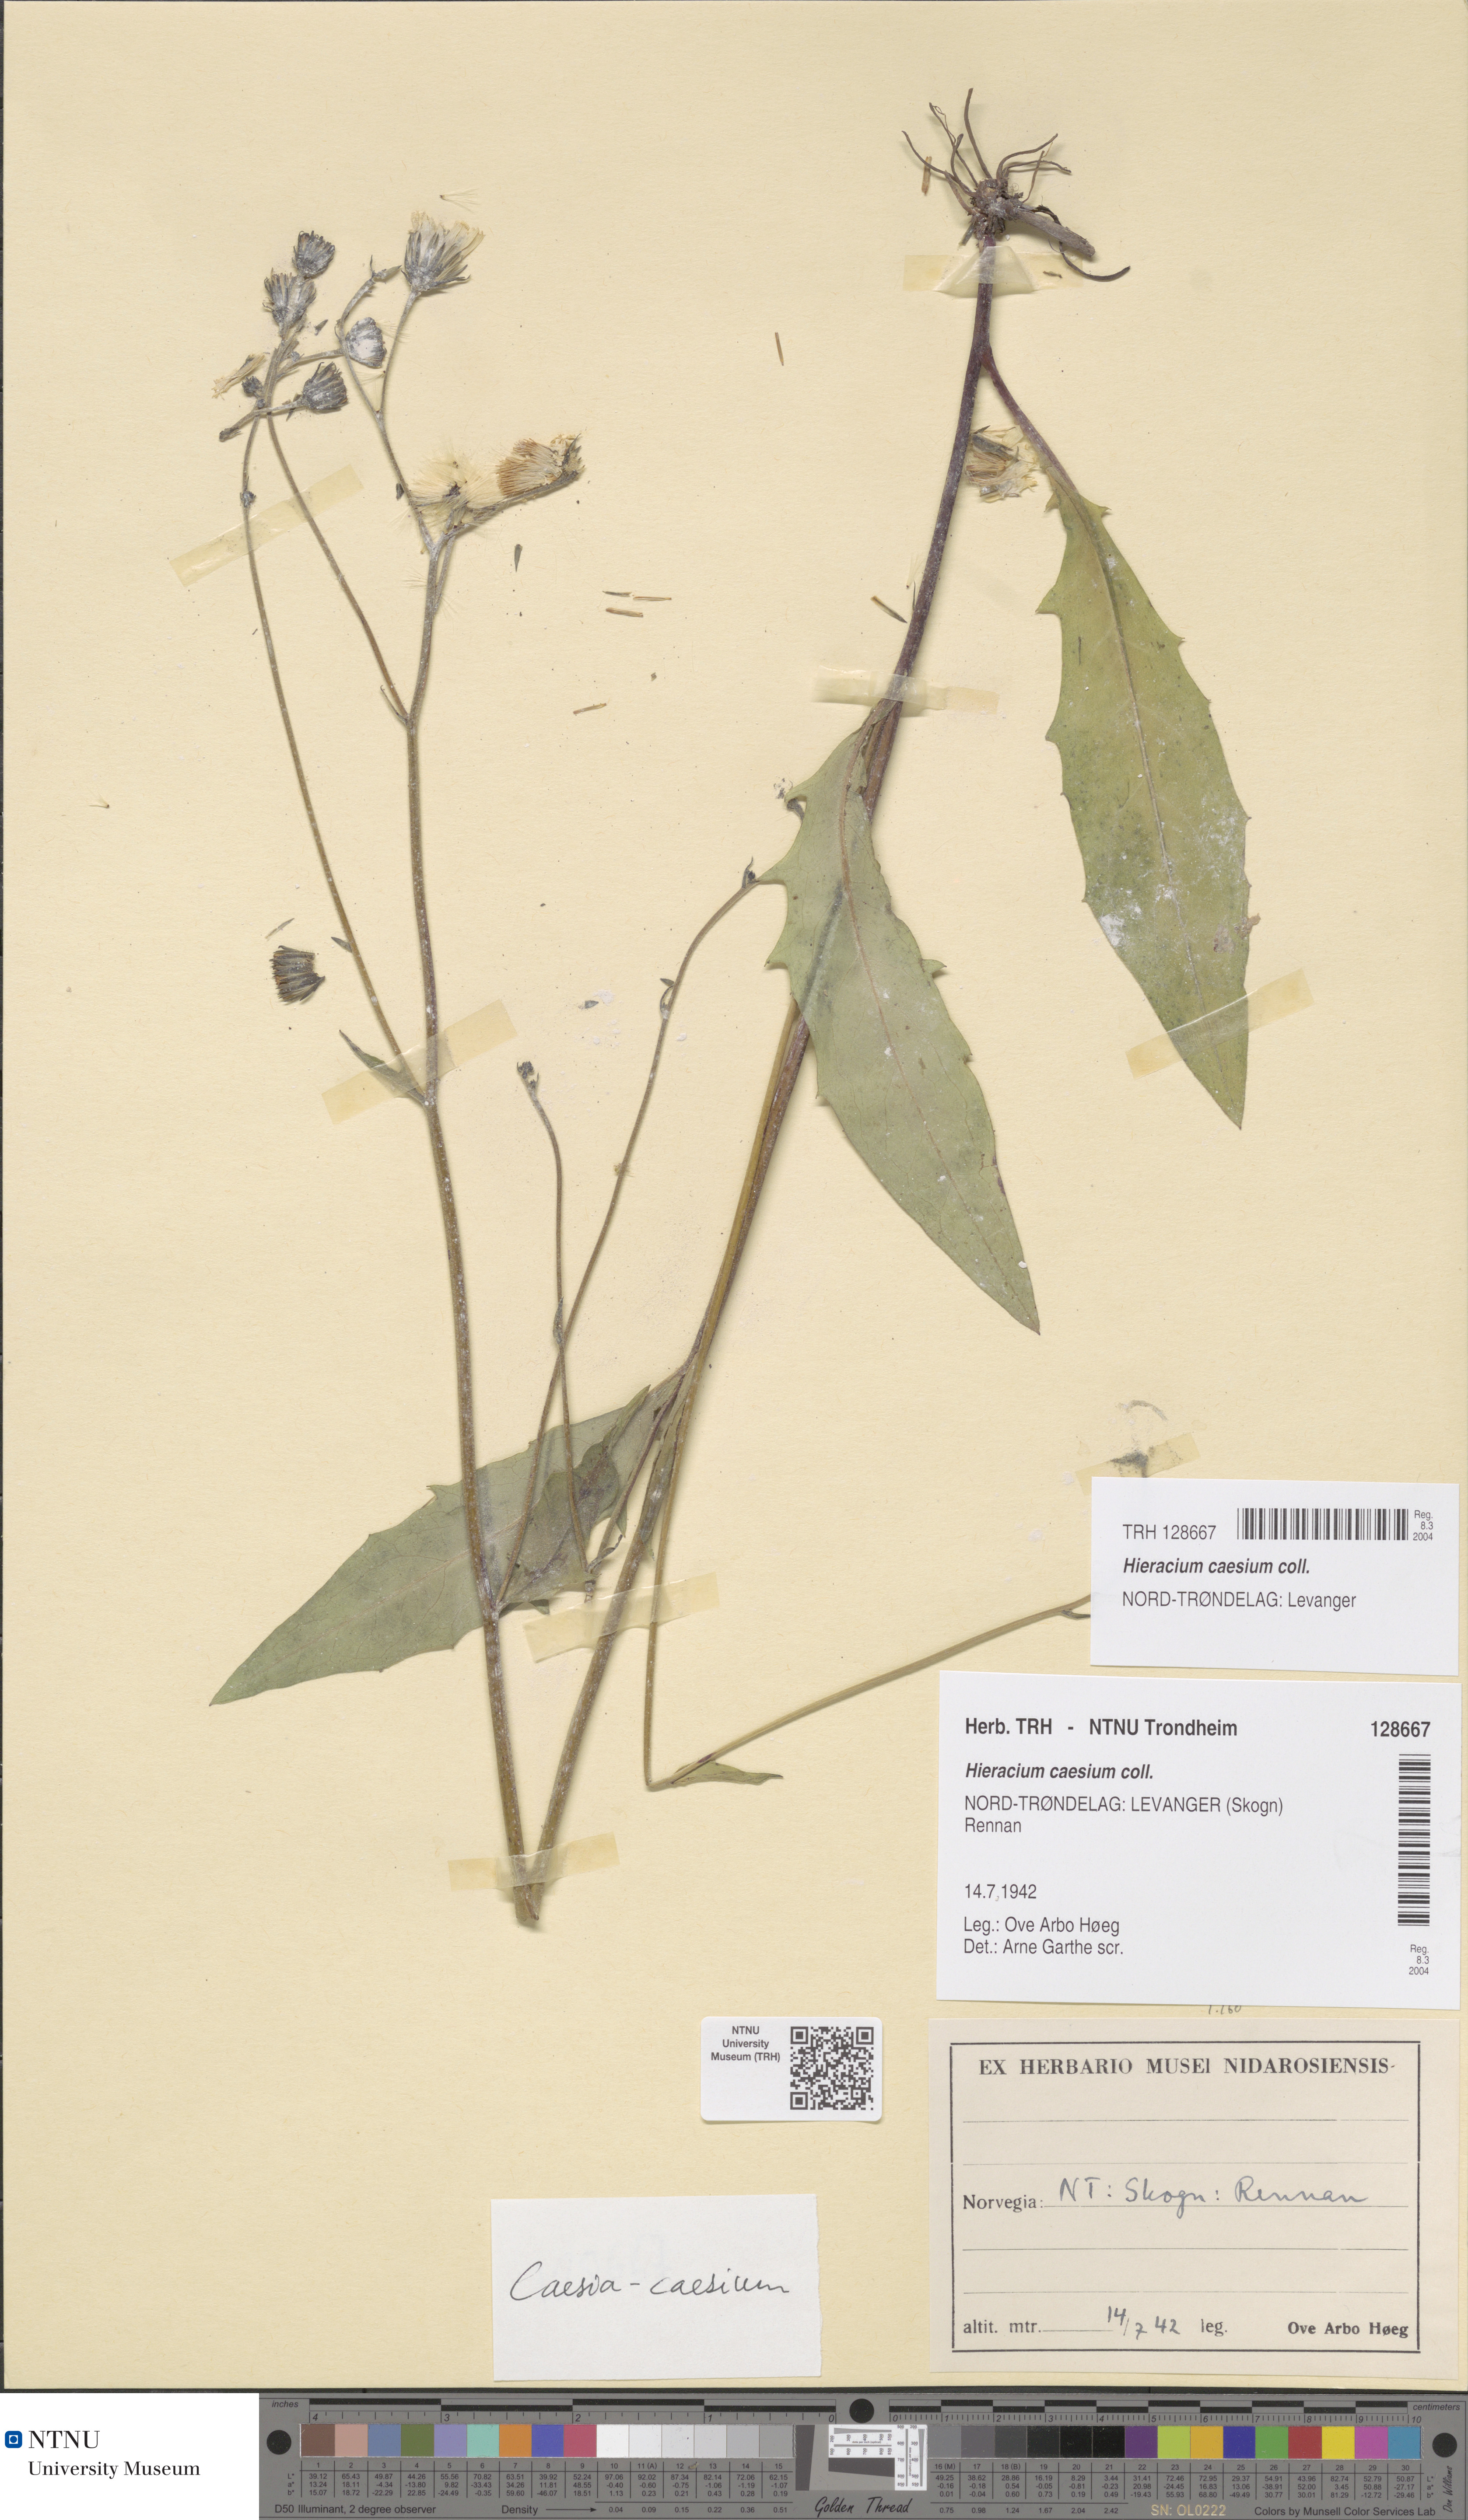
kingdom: Plantae
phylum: Tracheophyta
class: Magnoliopsida
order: Asterales
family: Asteraceae
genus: Hieracium
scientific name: Hieracium caesium
